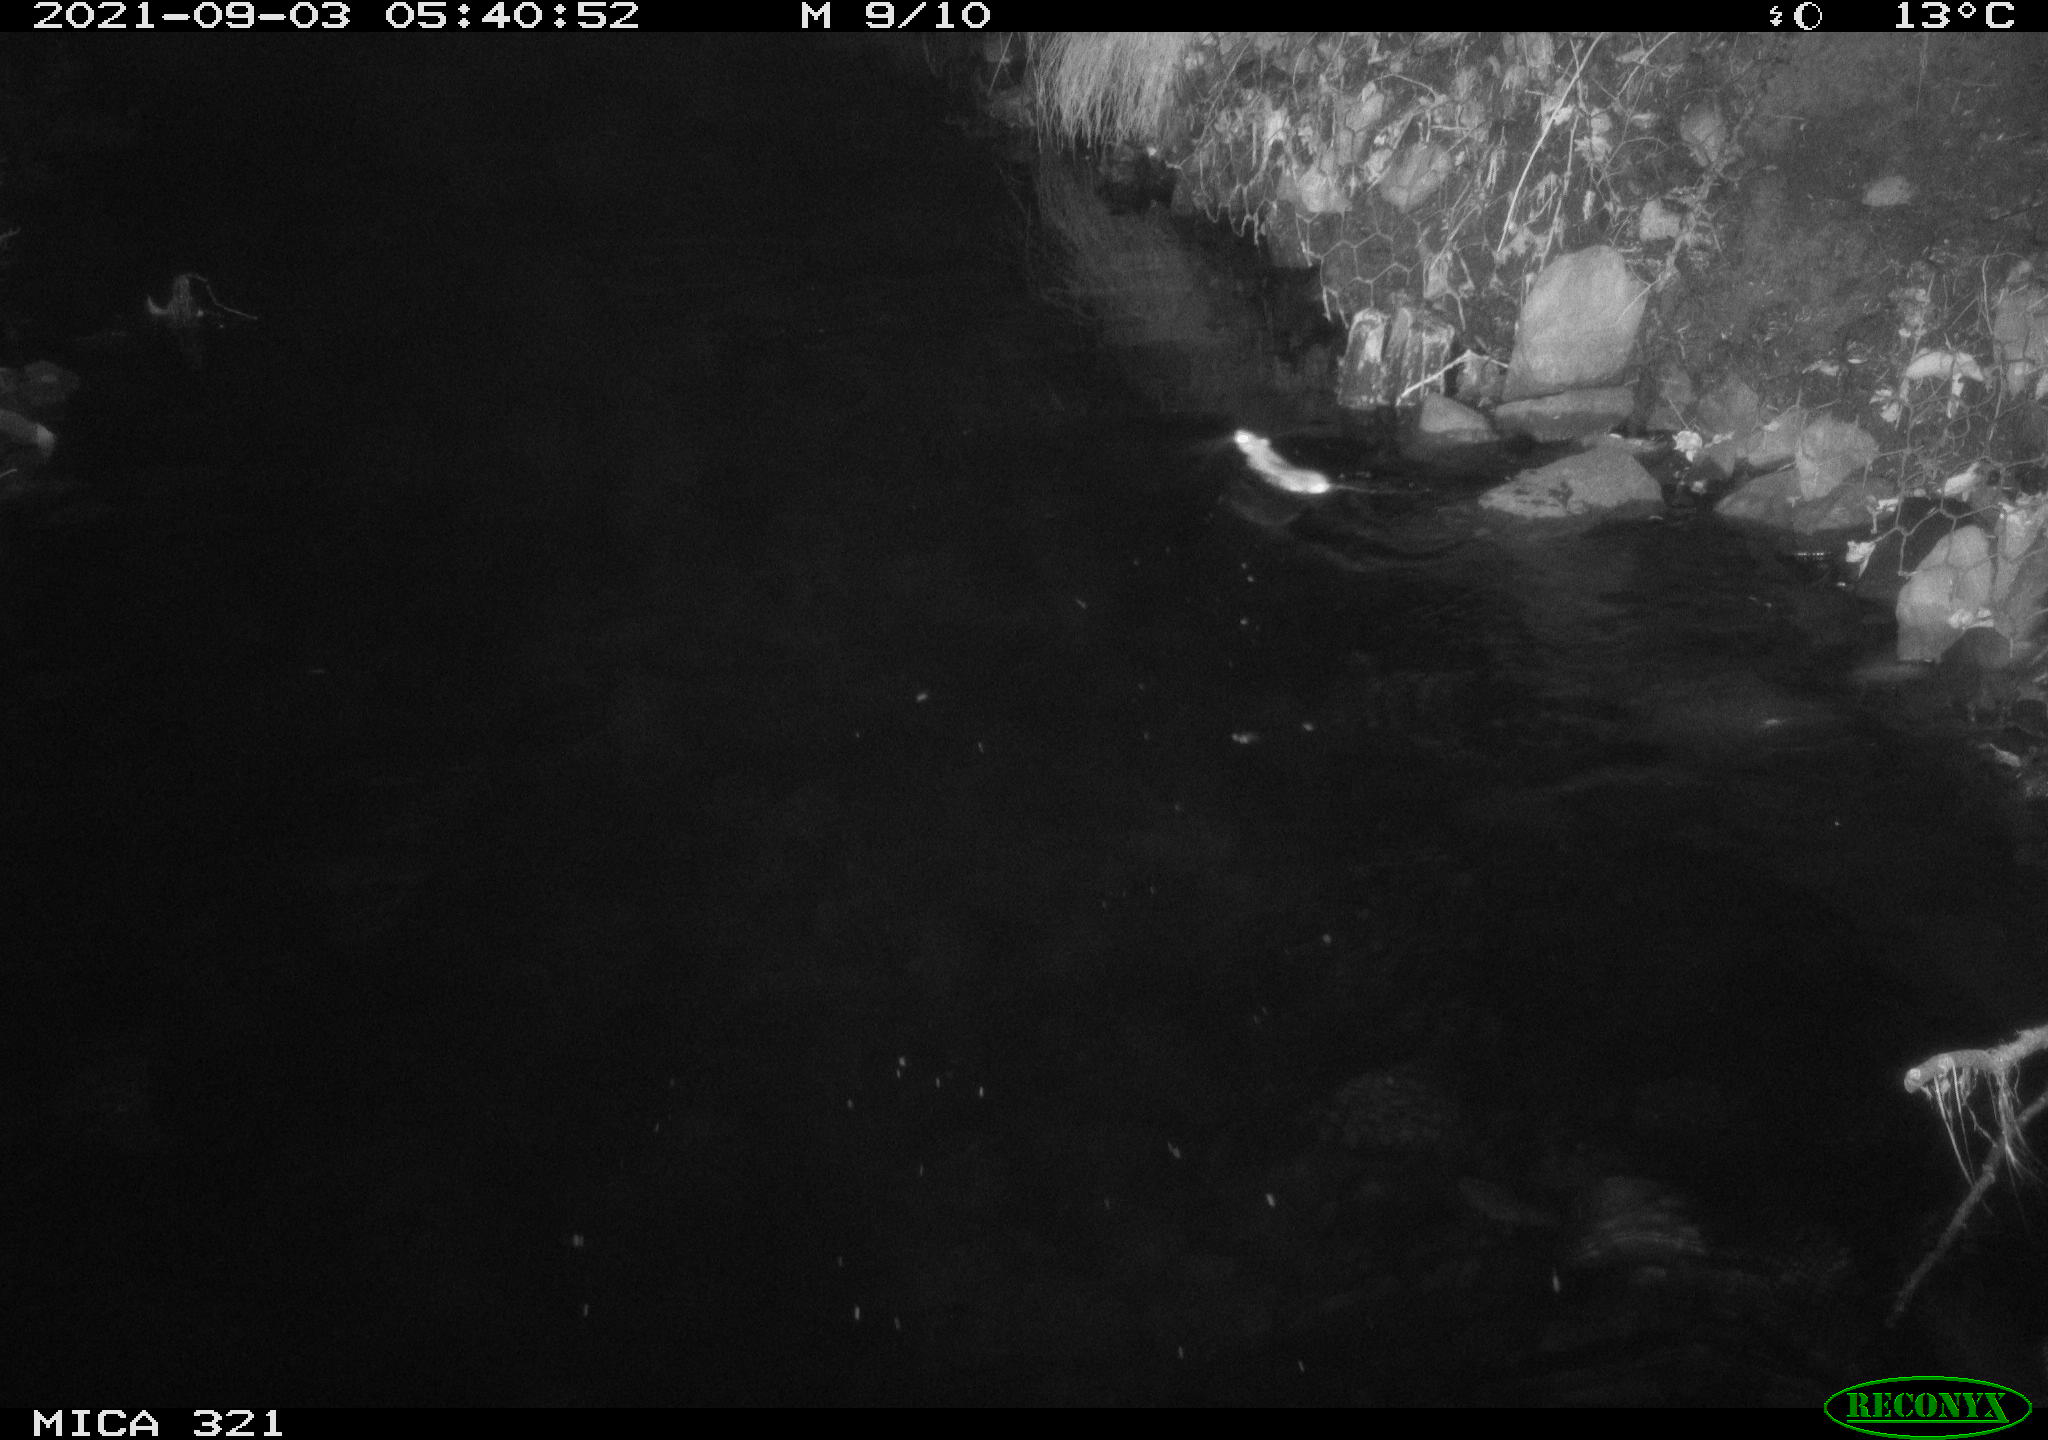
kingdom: Animalia
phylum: Chordata
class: Mammalia
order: Rodentia
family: Muridae
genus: Rattus
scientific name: Rattus norvegicus
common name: Brown rat
